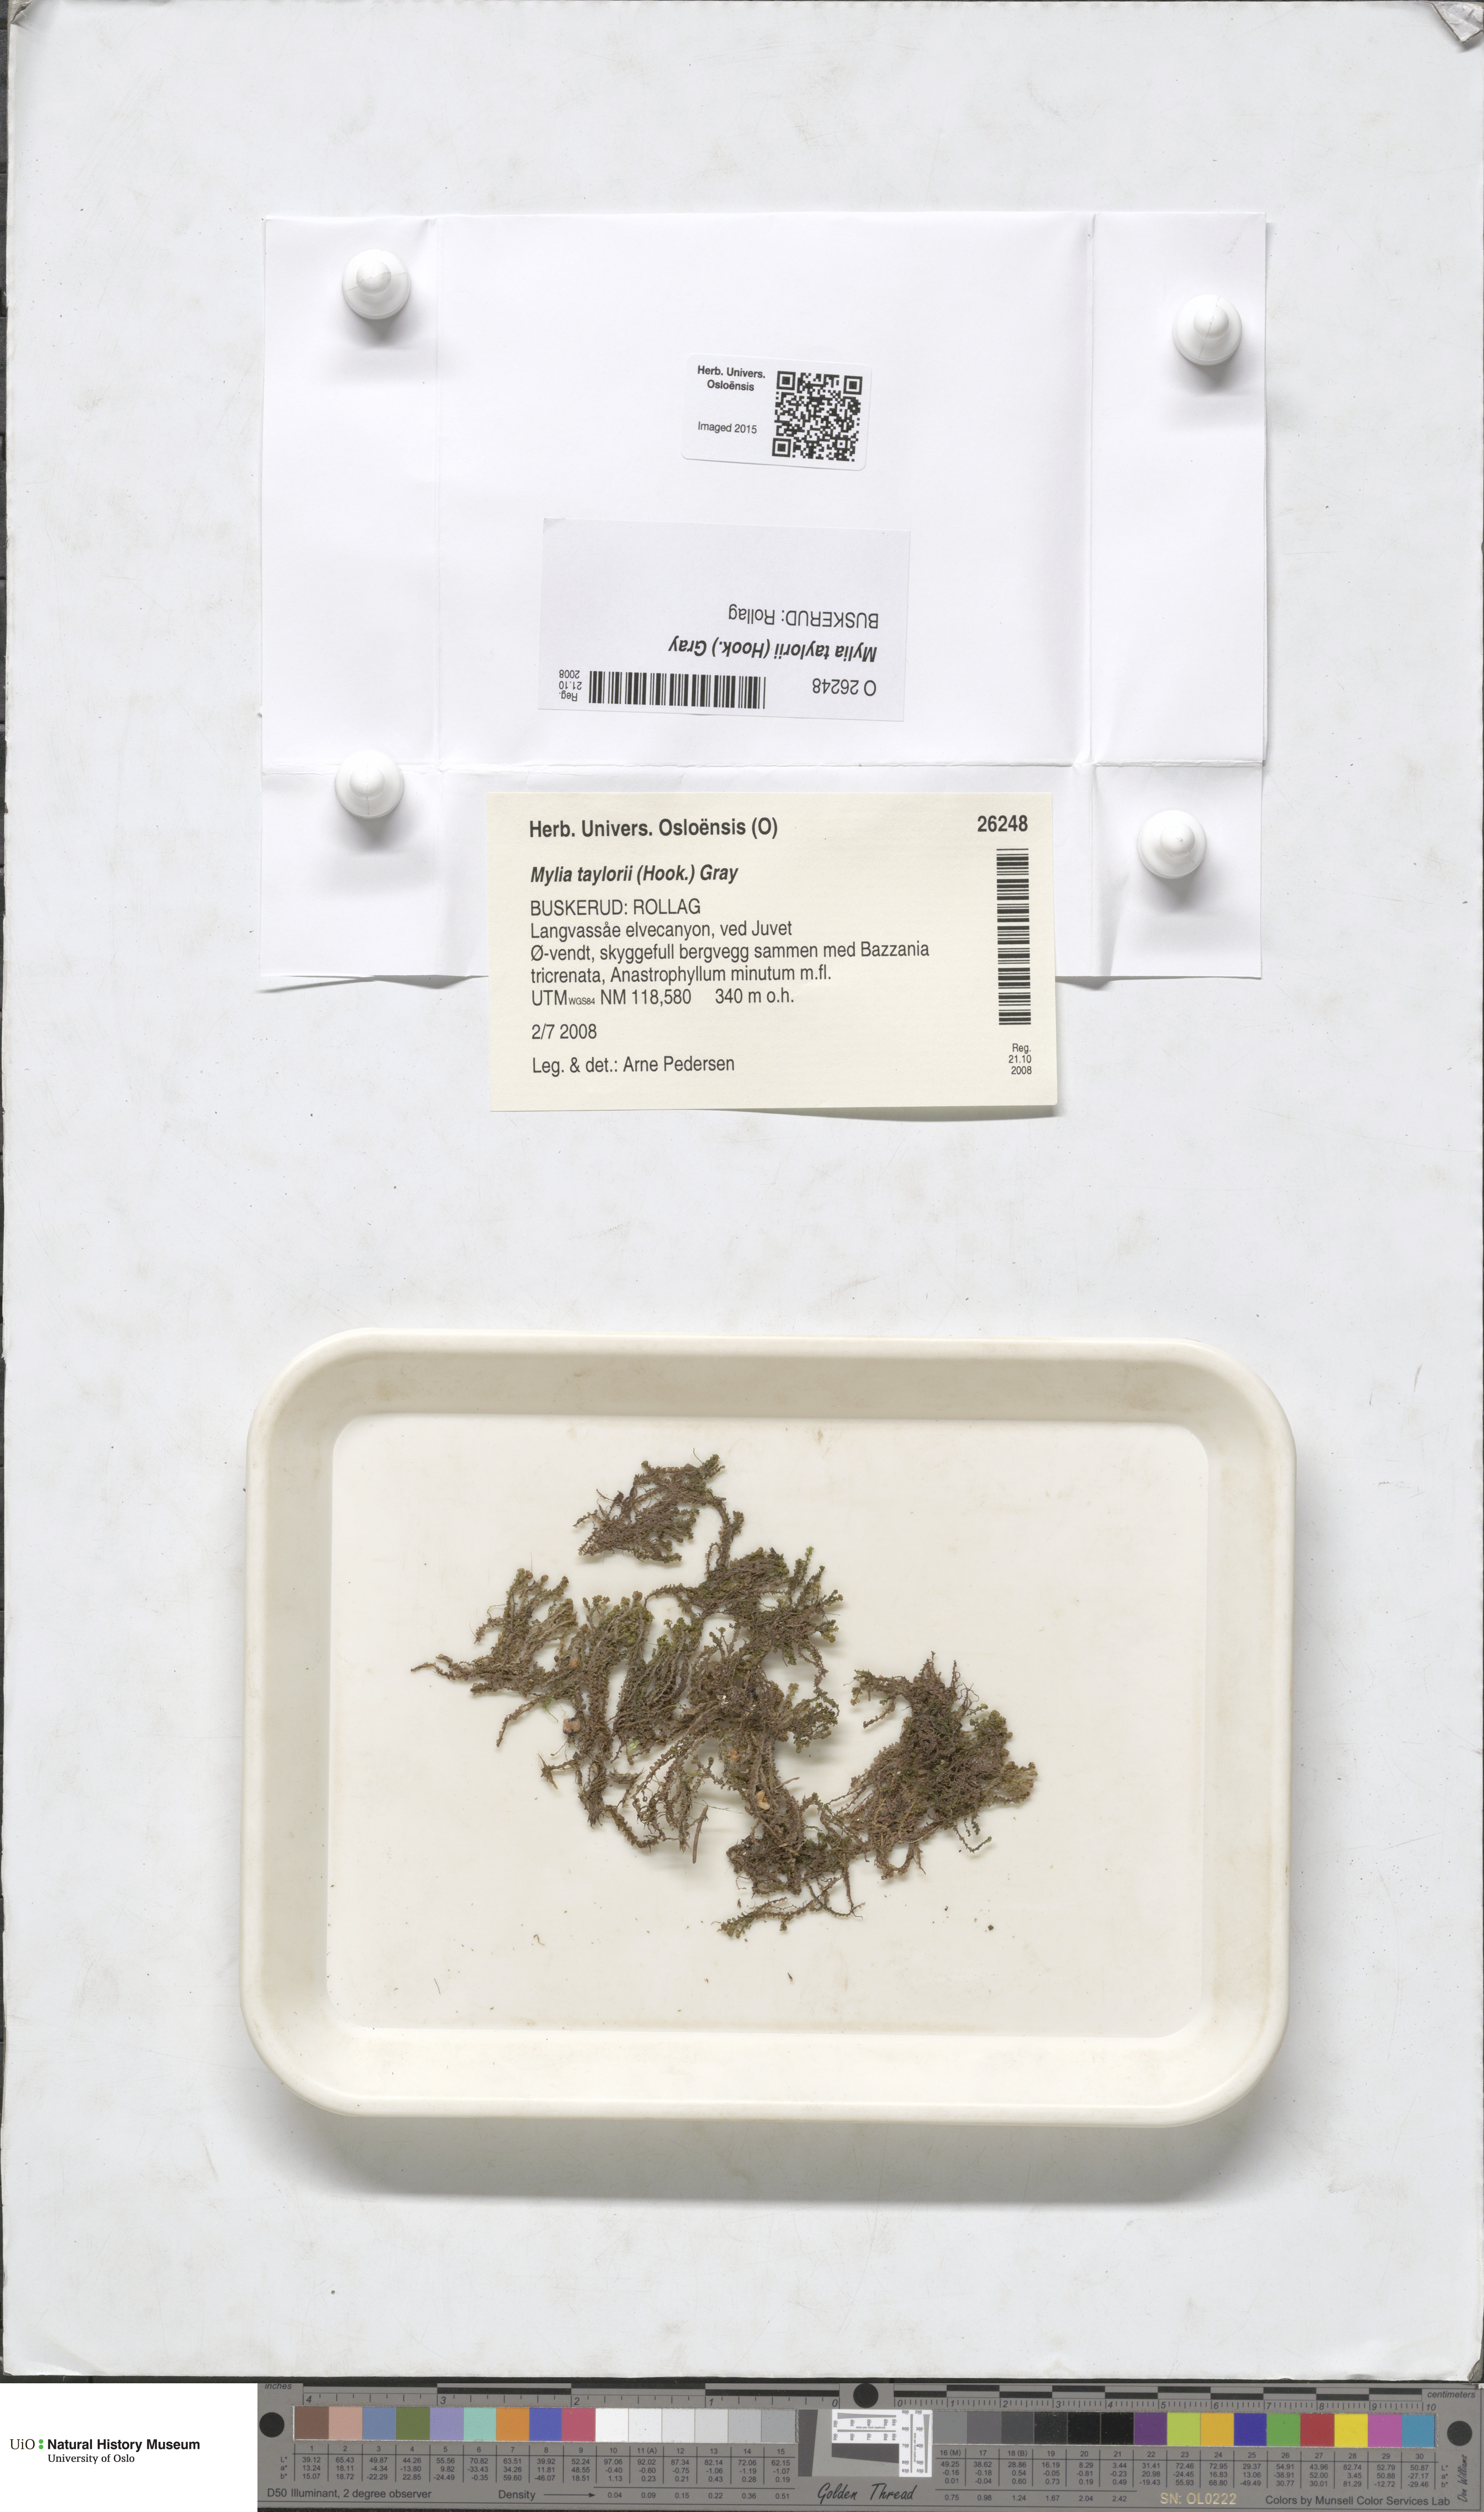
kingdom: Plantae
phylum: Marchantiophyta
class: Jungermanniopsida
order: Jungermanniales
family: Myliaceae
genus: Mylia
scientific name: Mylia taylorii
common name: Taylor s flapwort
